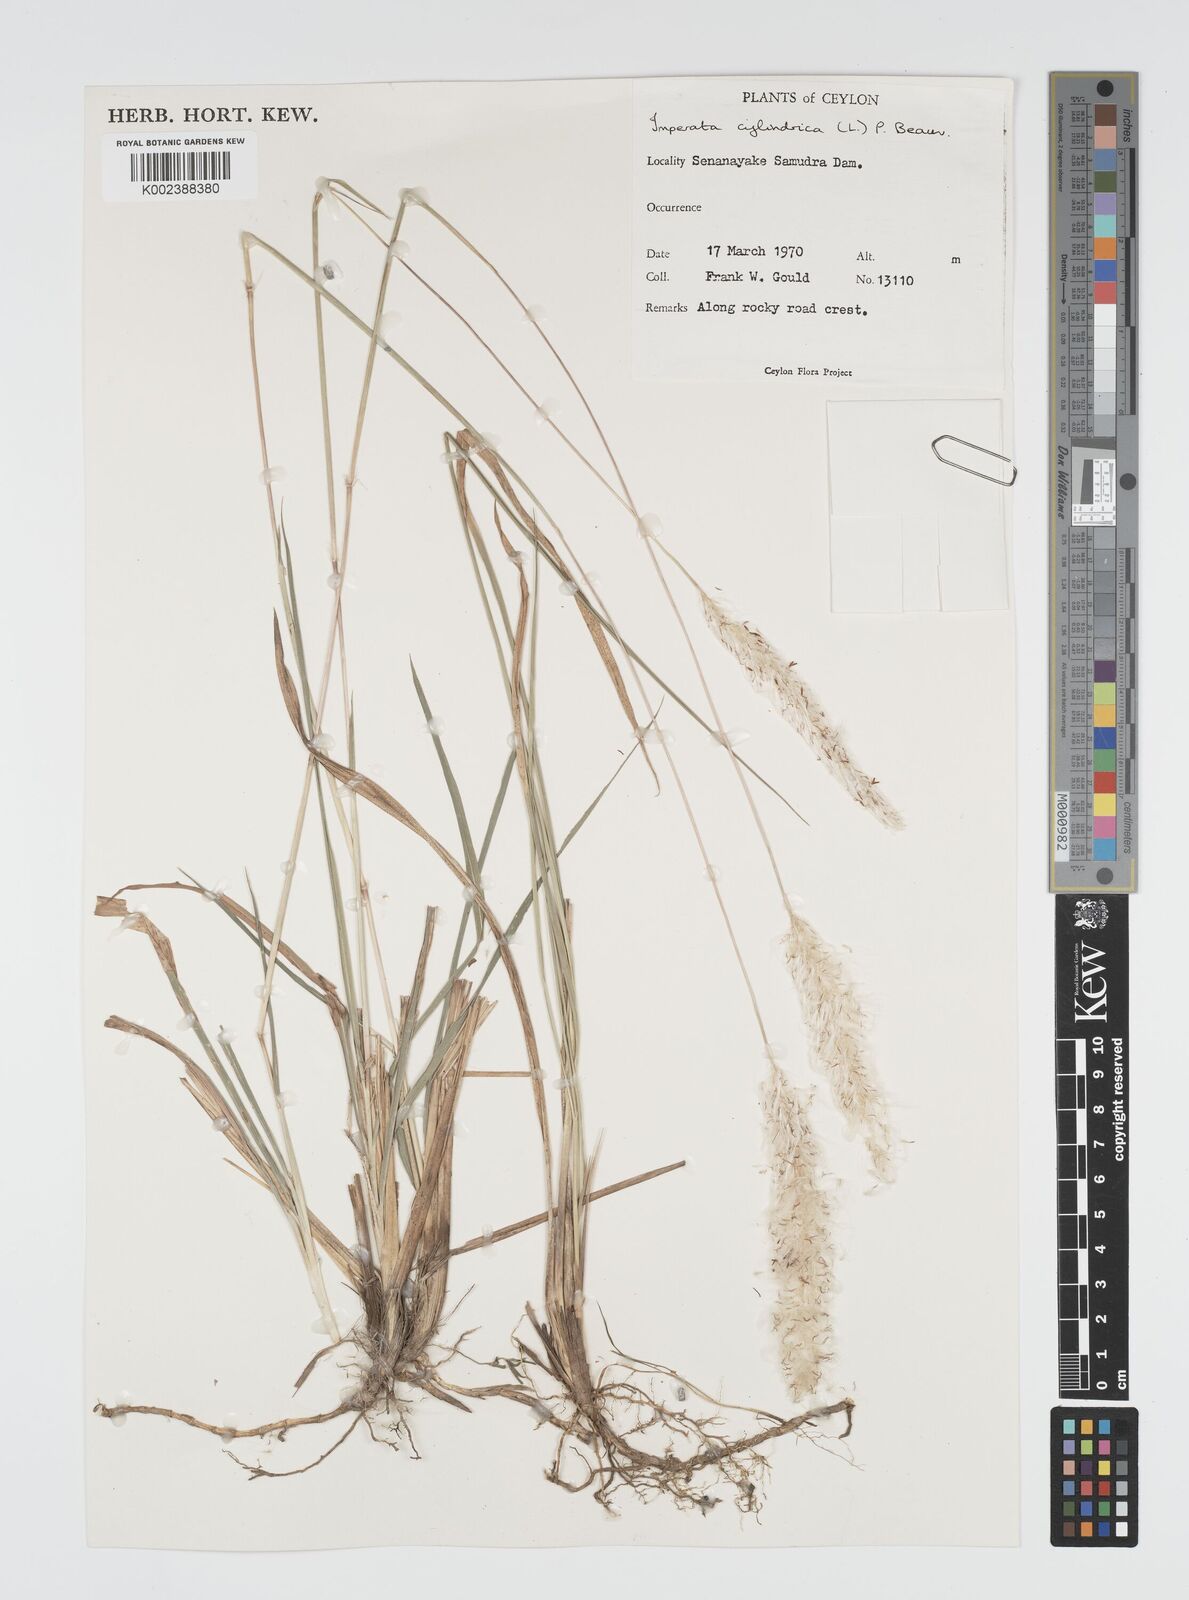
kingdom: Plantae
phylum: Tracheophyta
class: Liliopsida
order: Poales
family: Poaceae
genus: Imperata
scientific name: Imperata cylindrica
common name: Cogongrass
